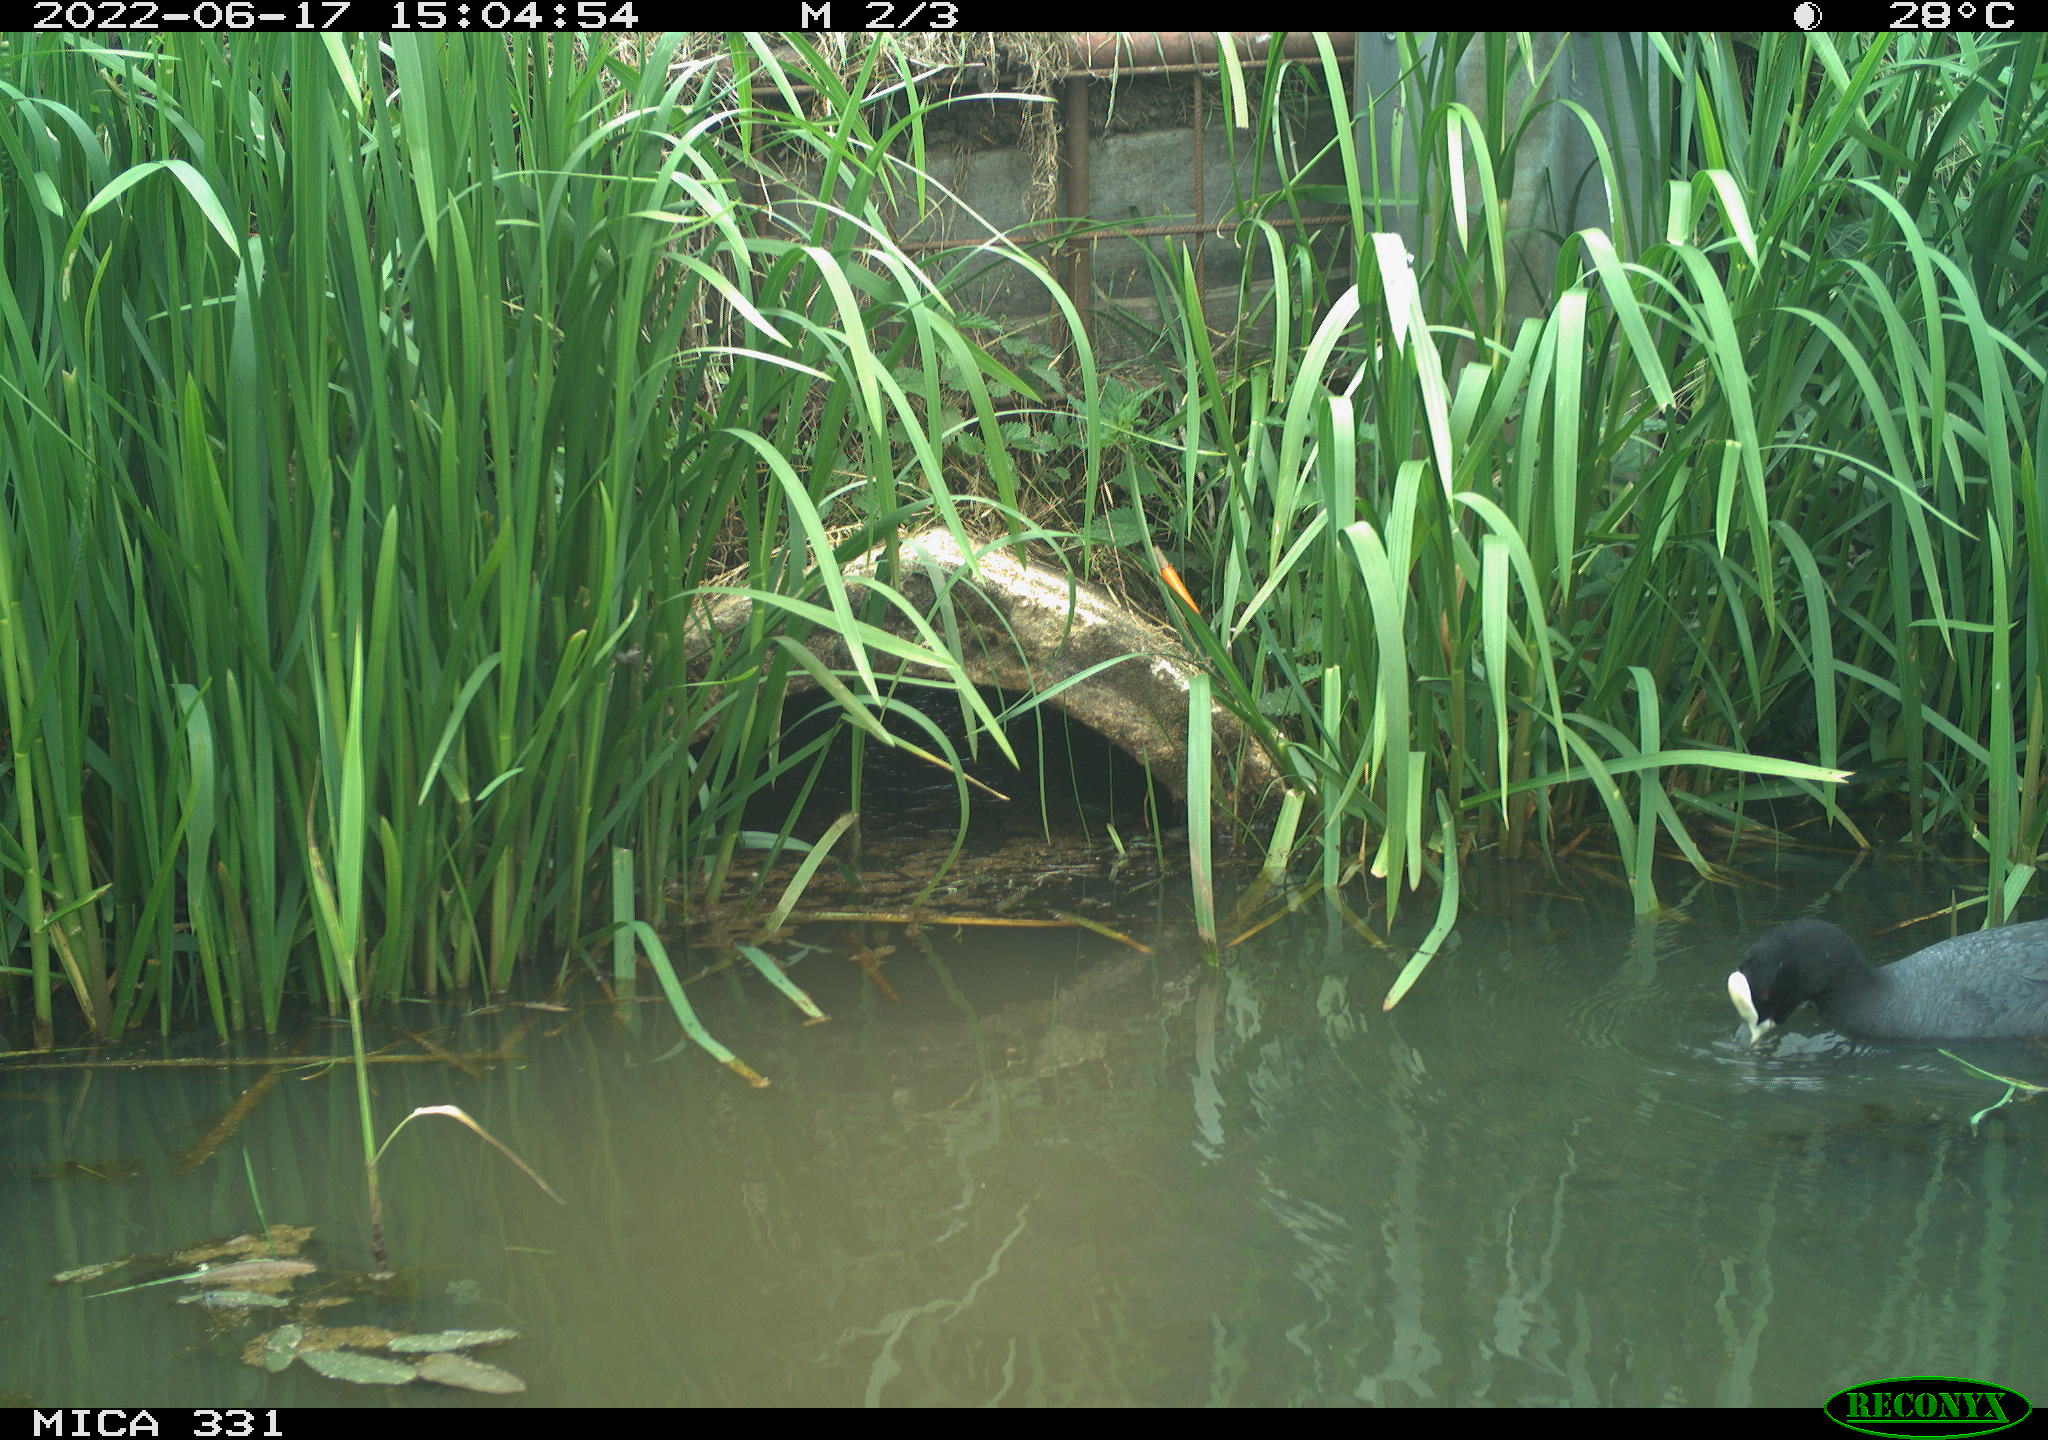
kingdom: Animalia
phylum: Chordata
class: Aves
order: Gruiformes
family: Rallidae
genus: Fulica
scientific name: Fulica atra
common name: Eurasian coot
